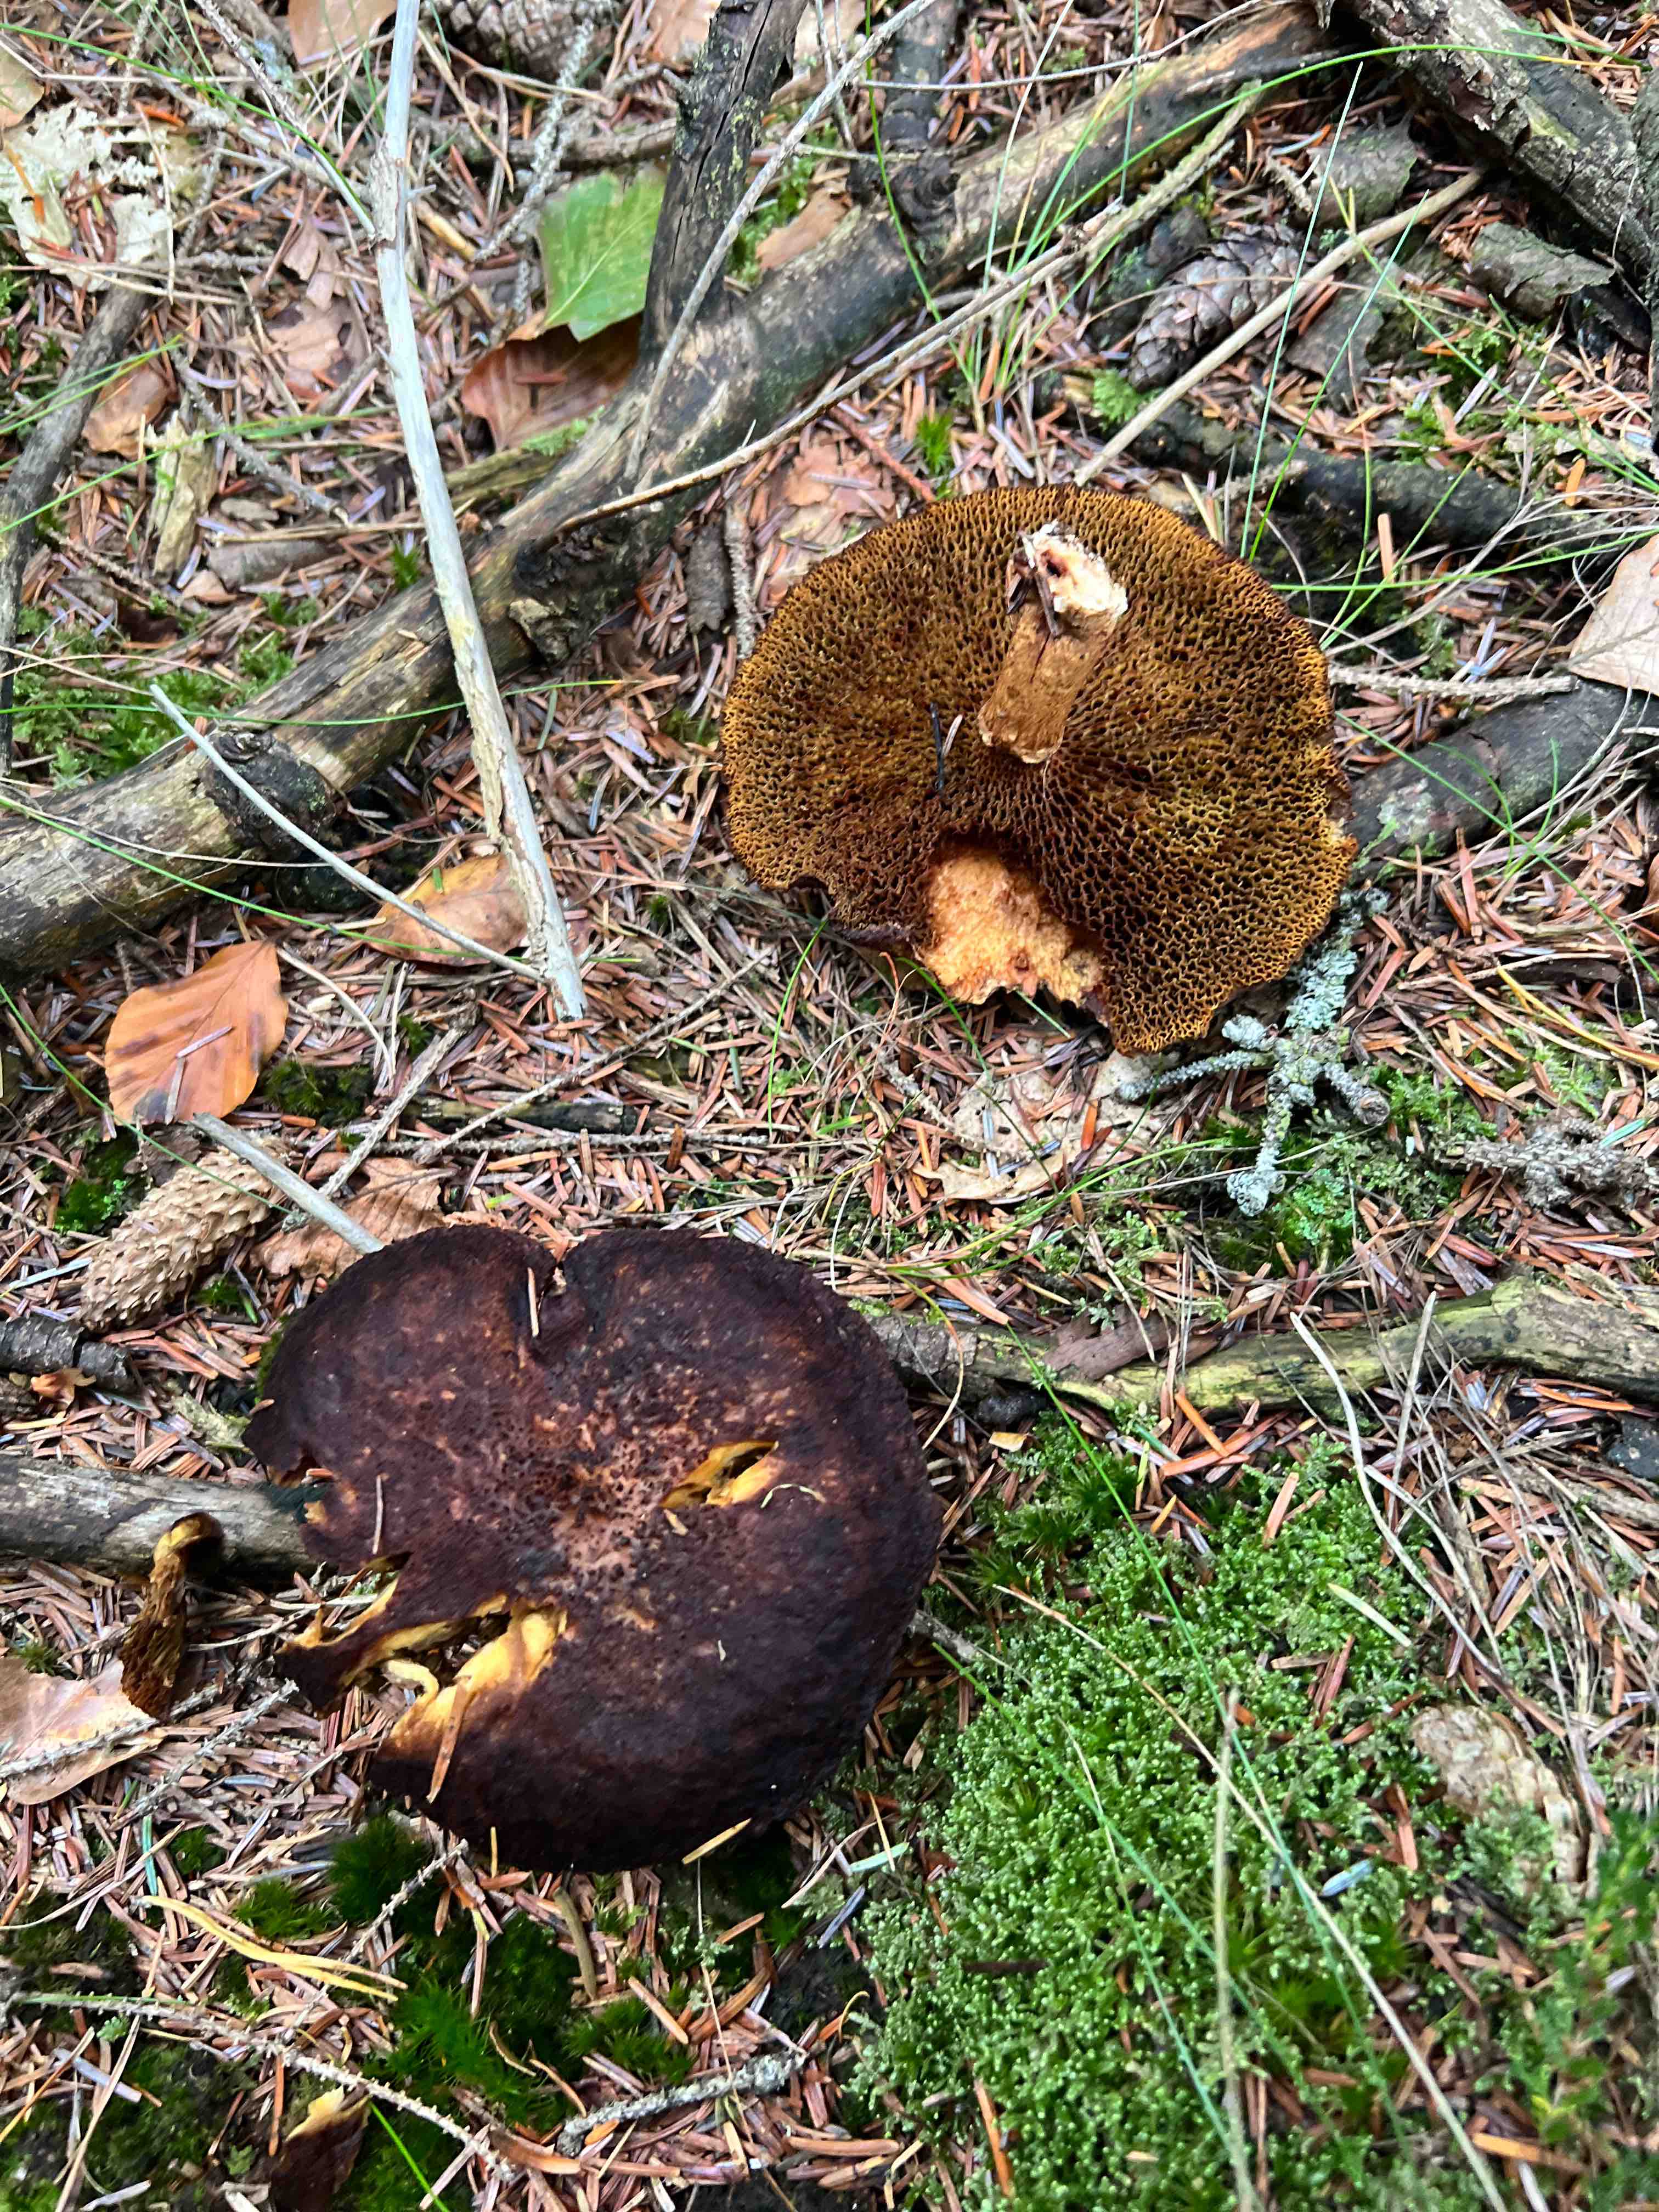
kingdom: Fungi
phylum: Basidiomycota
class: Agaricomycetes
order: Boletales
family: Suillaceae
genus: Suillus
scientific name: Suillus cavipes
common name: hulstokket slimrørhat
